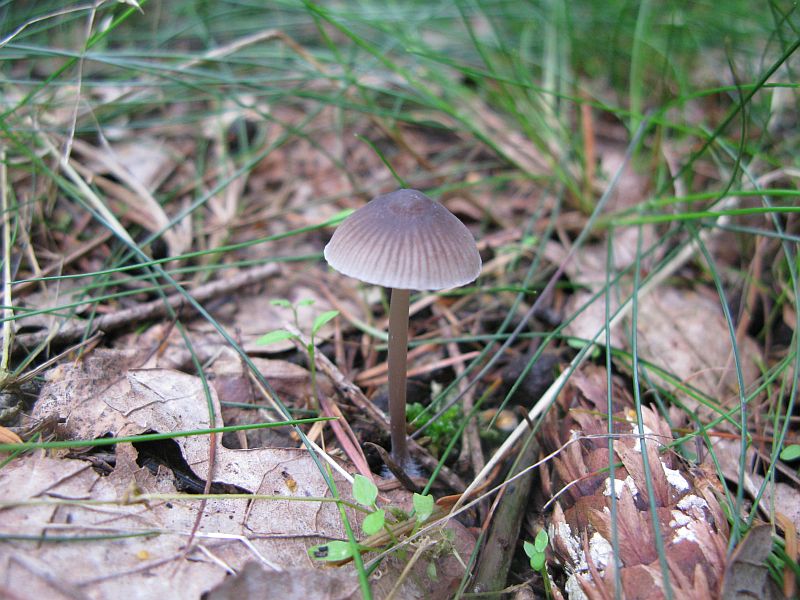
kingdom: Fungi
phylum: Basidiomycota
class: Agaricomycetes
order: Agaricales
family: Mycenaceae
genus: Mycena
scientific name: Mycena abramsii
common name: sommer-huesvamp
